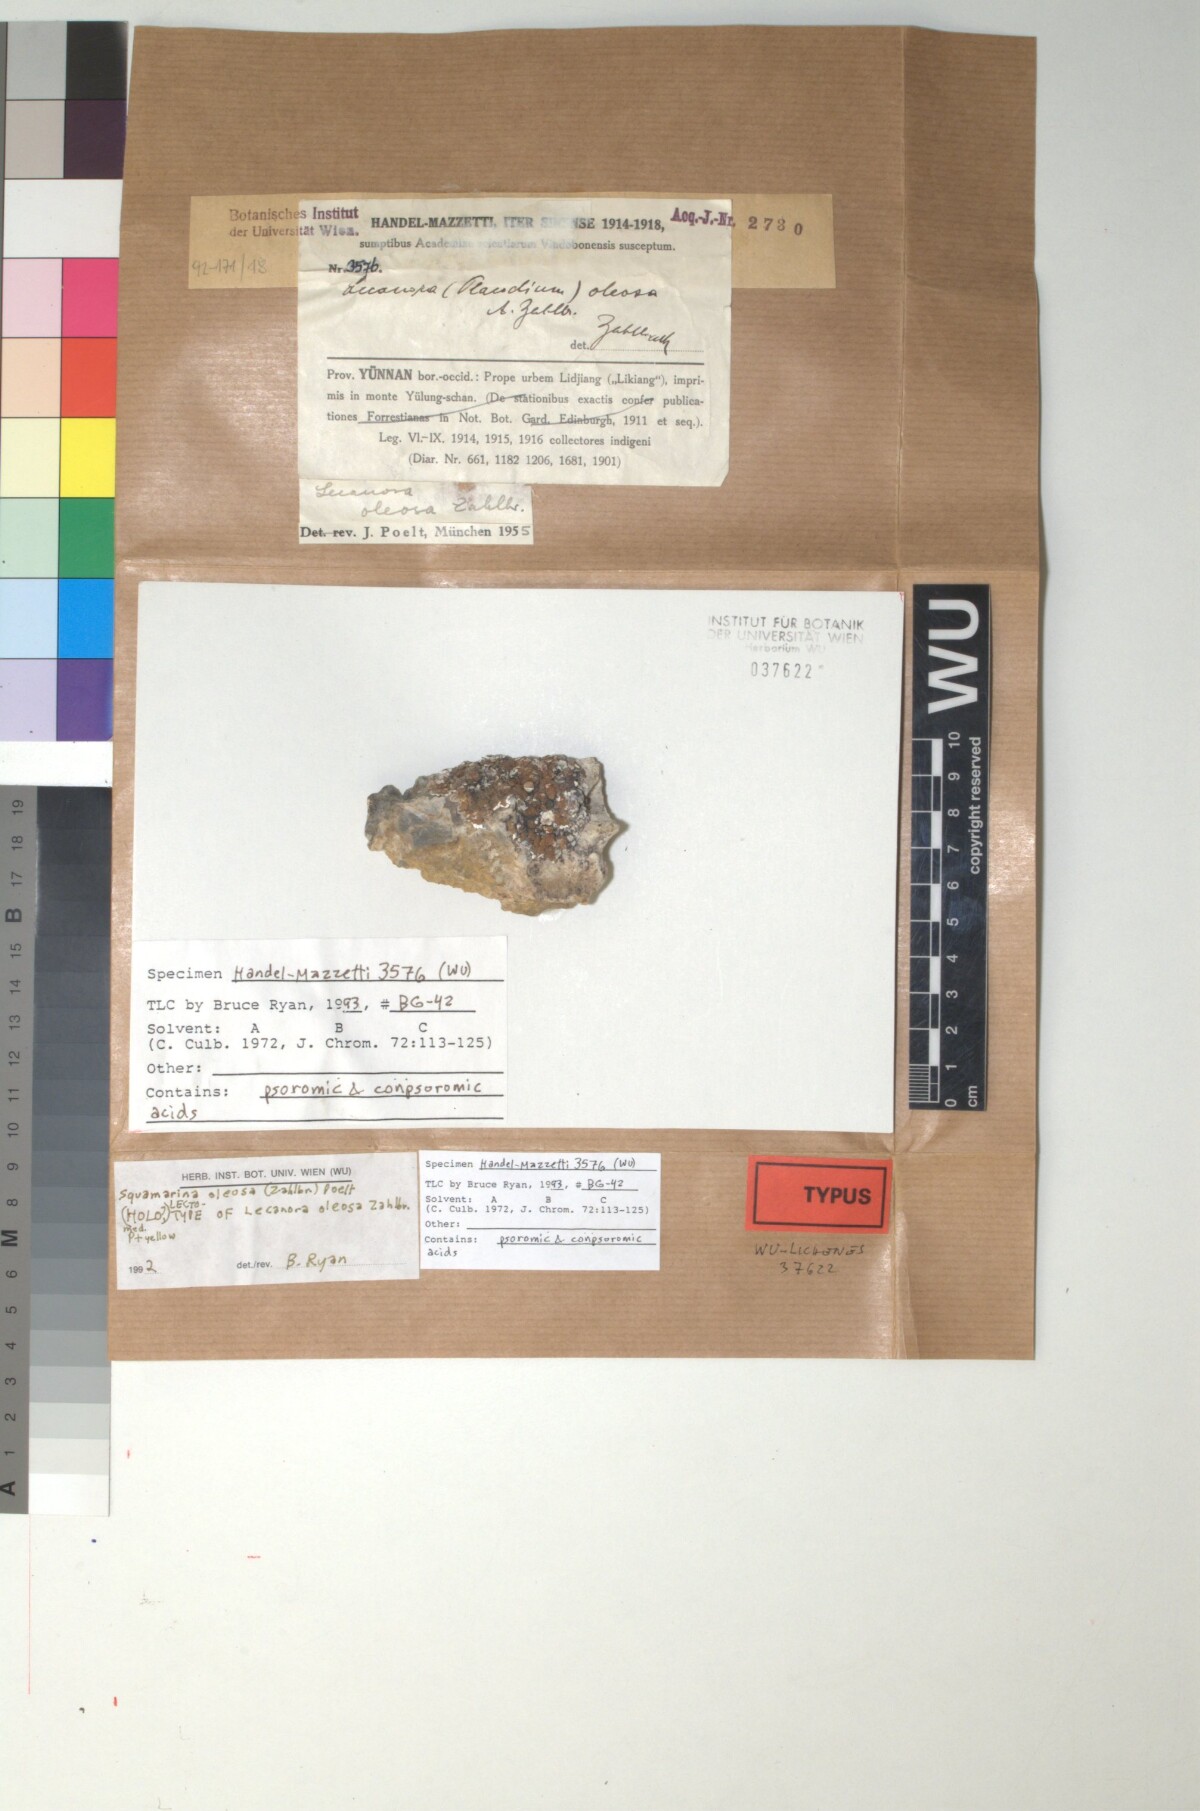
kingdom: Fungi
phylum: Ascomycota
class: Lecanoromycetes
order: Lecanorales
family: Stereocaulaceae
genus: Squamarina
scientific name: Squamarina oleosa
